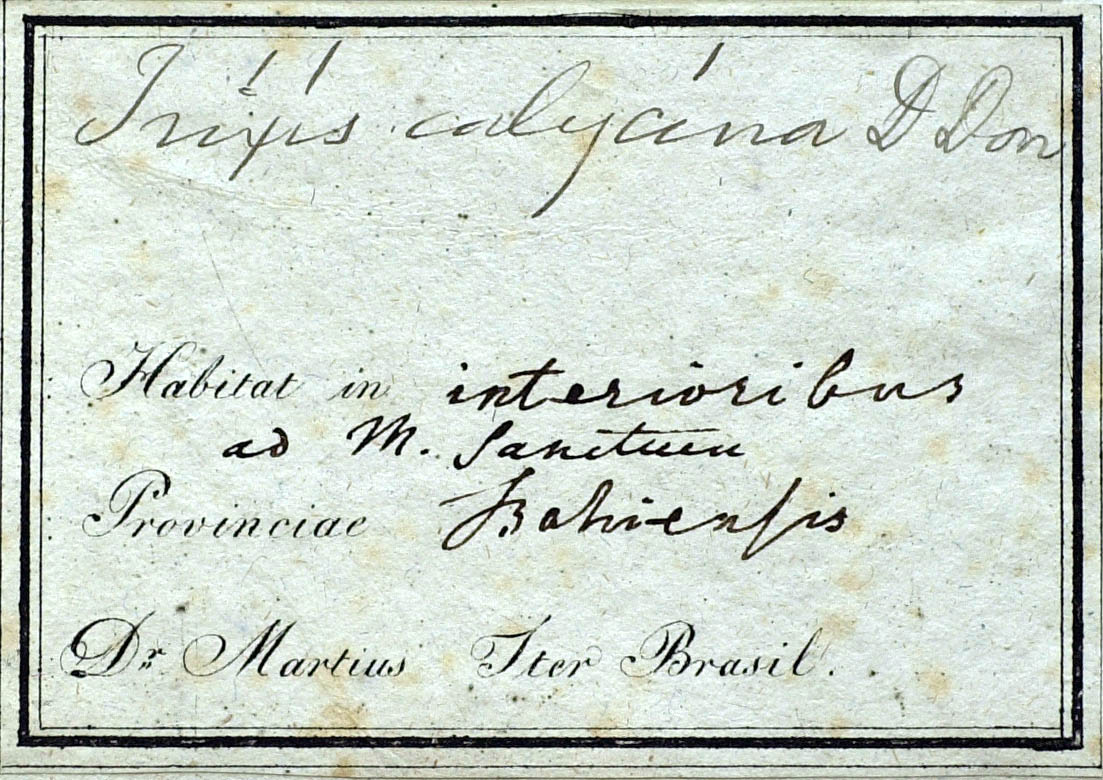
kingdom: Plantae
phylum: Tracheophyta
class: Magnoliopsida
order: Asterales
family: Asteraceae
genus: Trixis
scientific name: Trixis calycina
